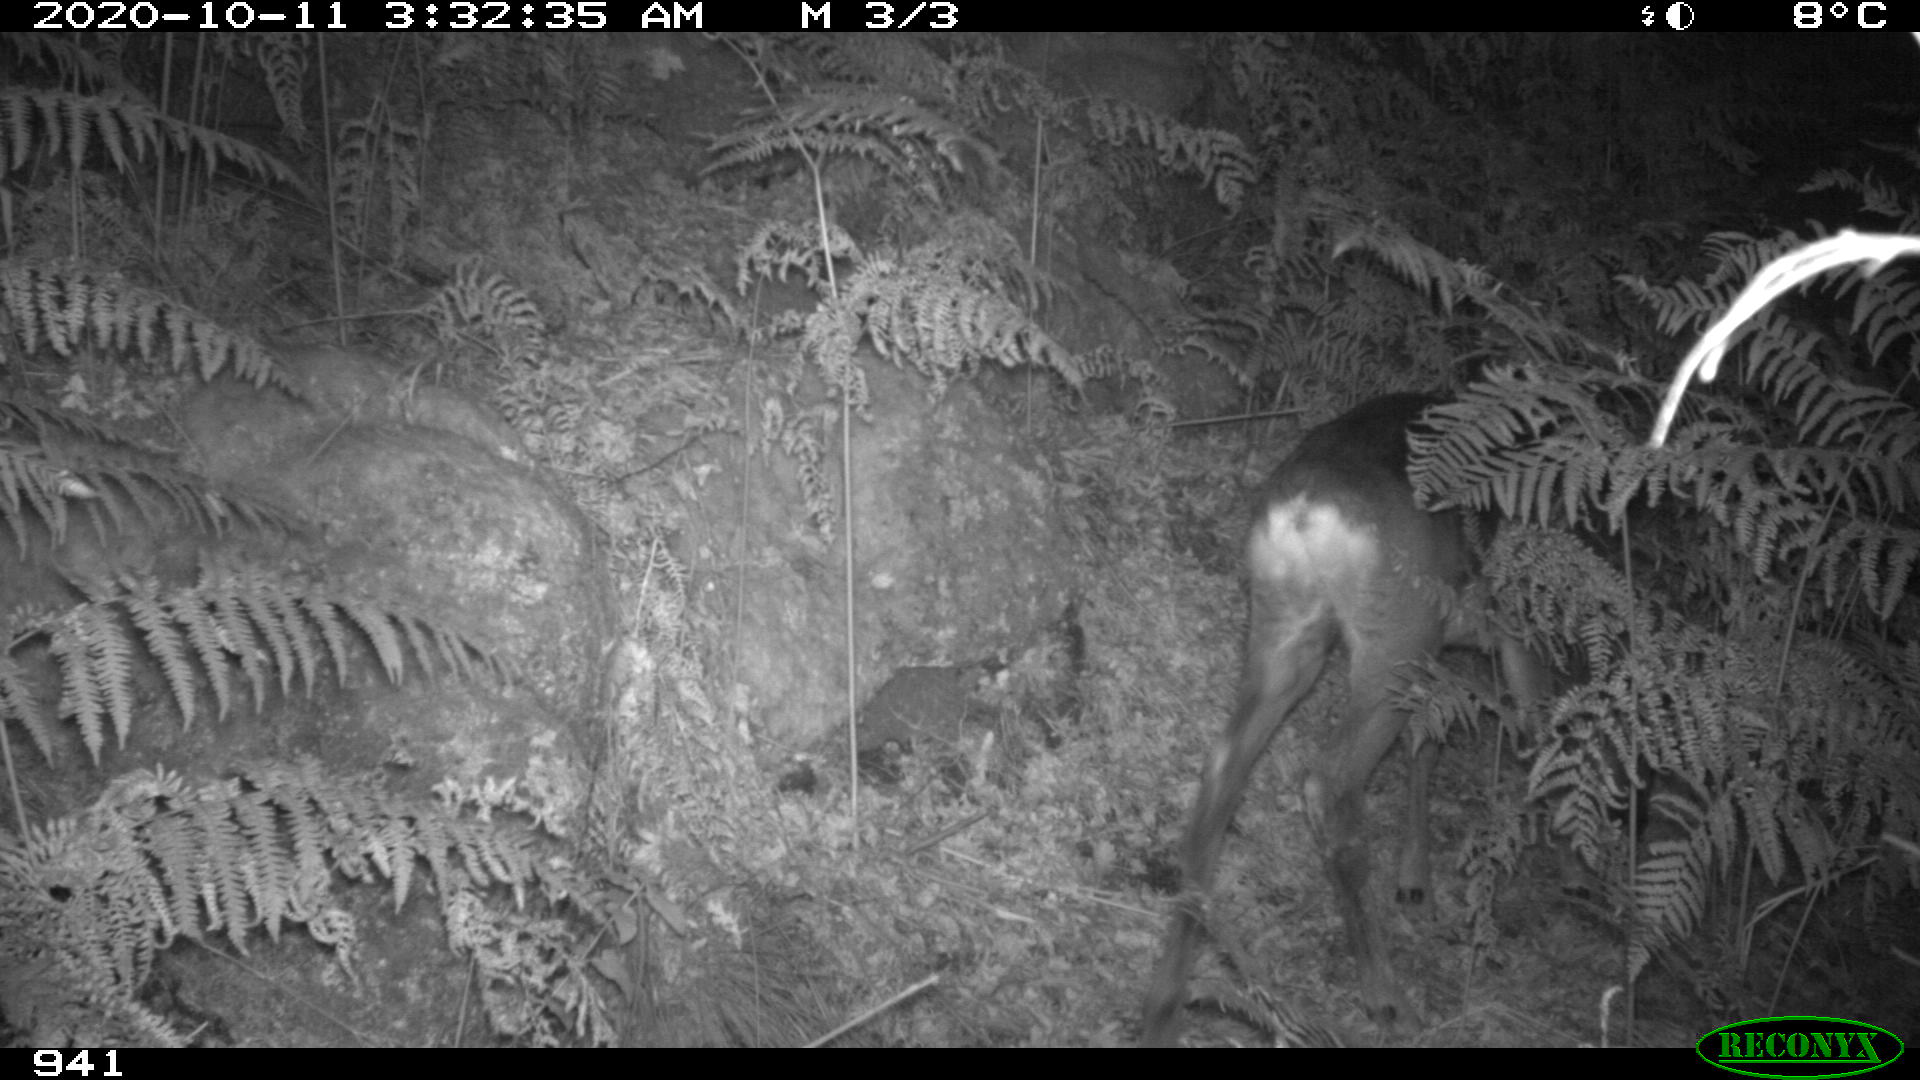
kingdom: Animalia
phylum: Chordata
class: Mammalia
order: Artiodactyla
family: Cervidae
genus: Capreolus
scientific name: Capreolus capreolus
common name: Western roe deer
